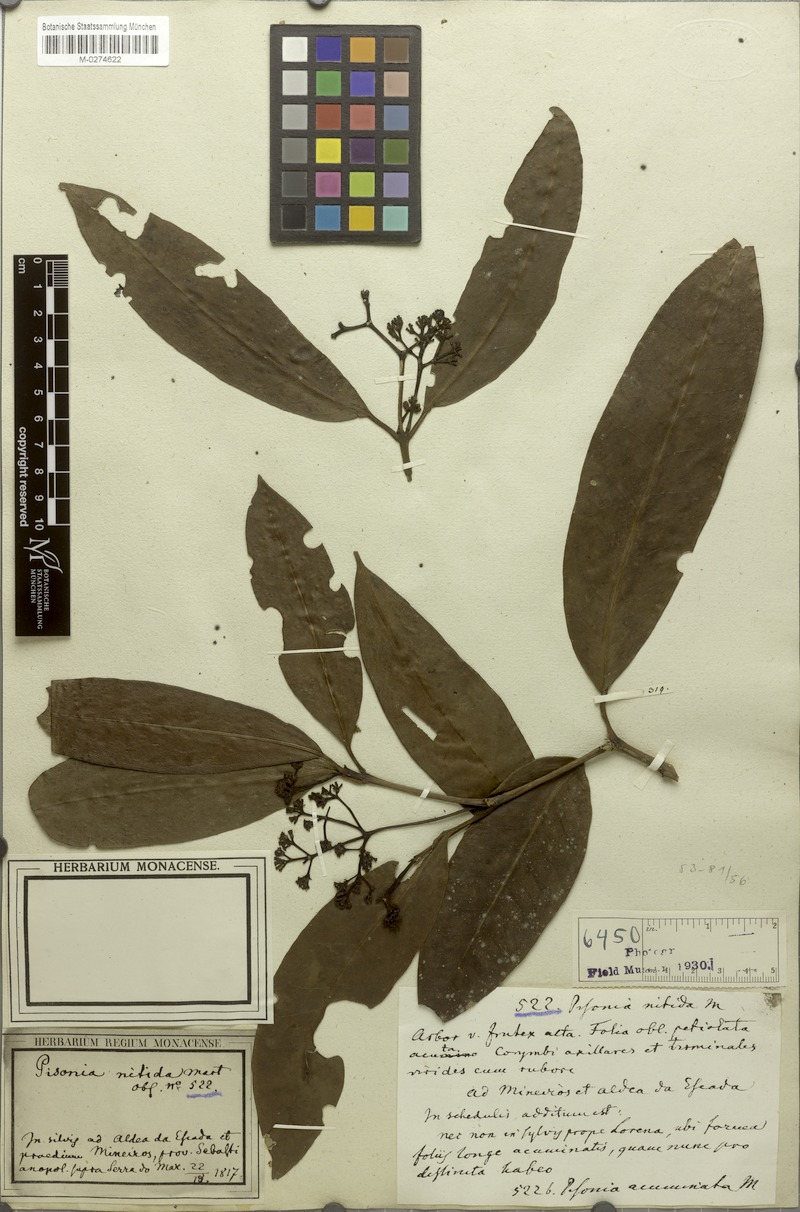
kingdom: Plantae
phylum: Tracheophyta
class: Magnoliopsida
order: Caryophyllales
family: Nyctaginaceae
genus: Guapira
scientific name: Guapira opposita
